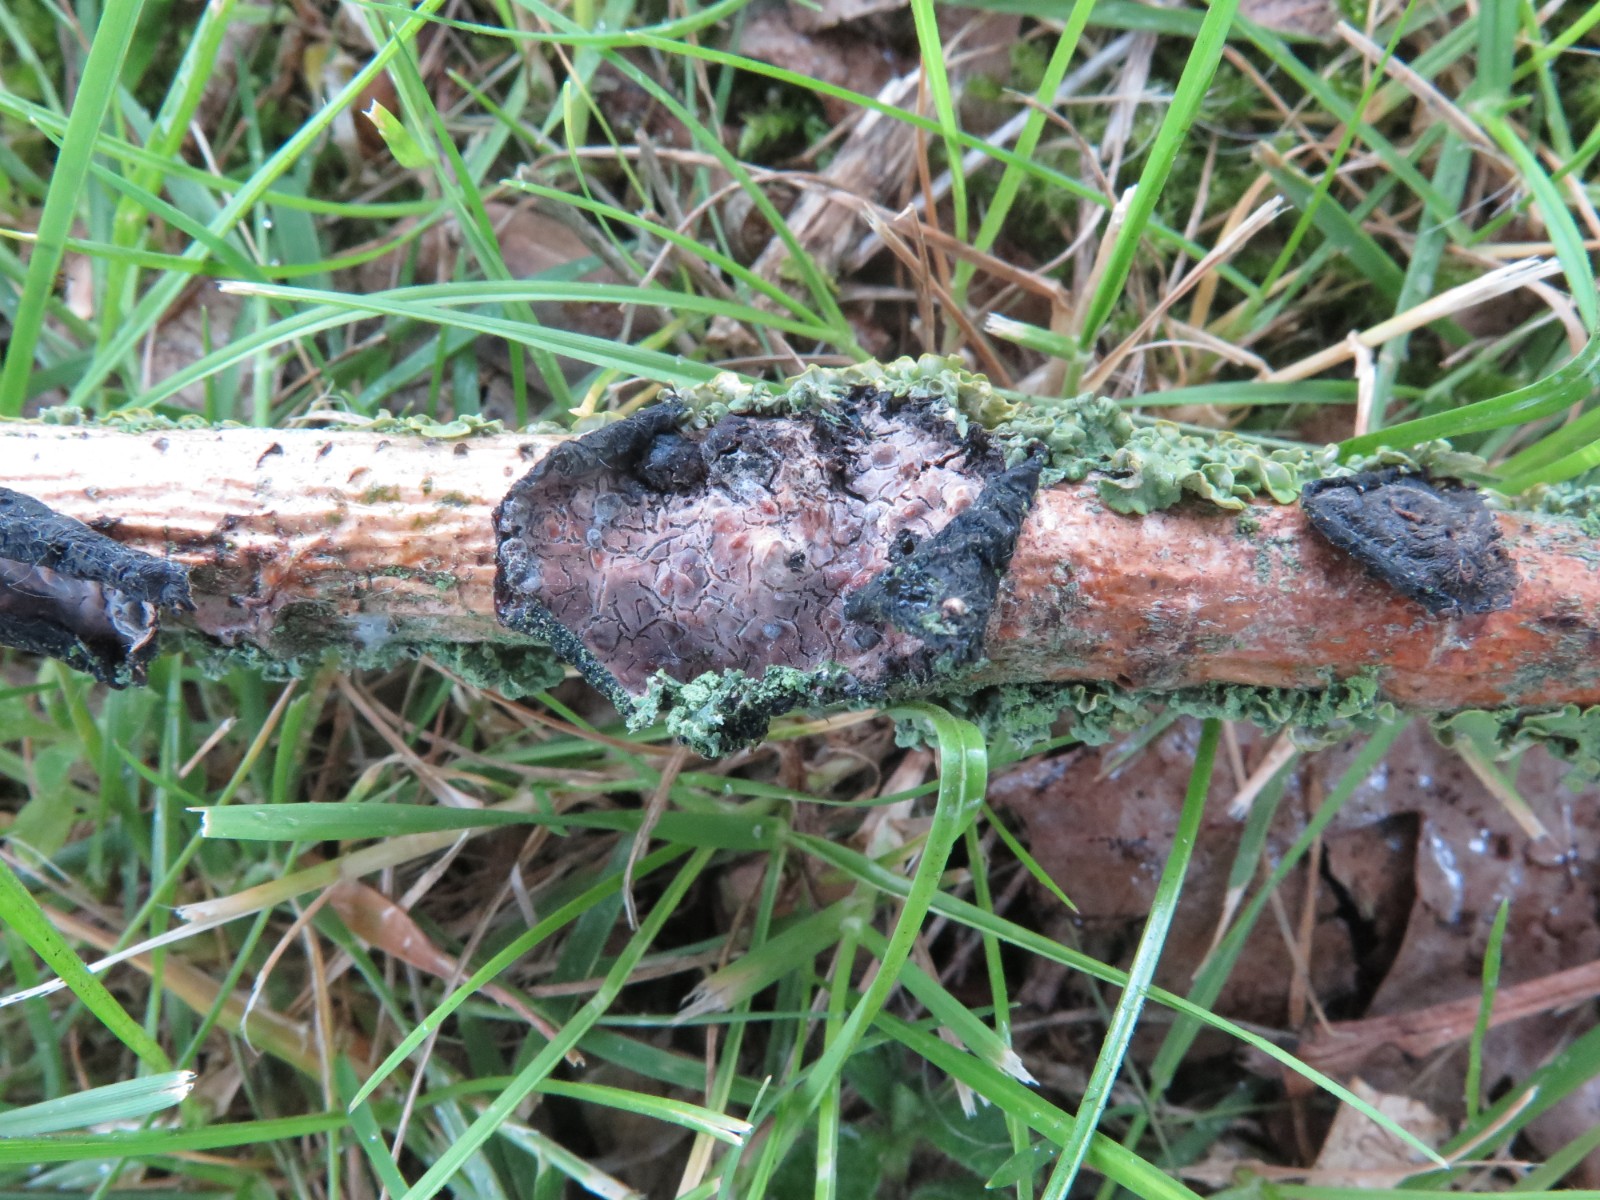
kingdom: Fungi
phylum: Basidiomycota
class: Agaricomycetes
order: Russulales
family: Peniophoraceae
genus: Peniophora
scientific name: Peniophora quercina
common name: ege-voksskind
